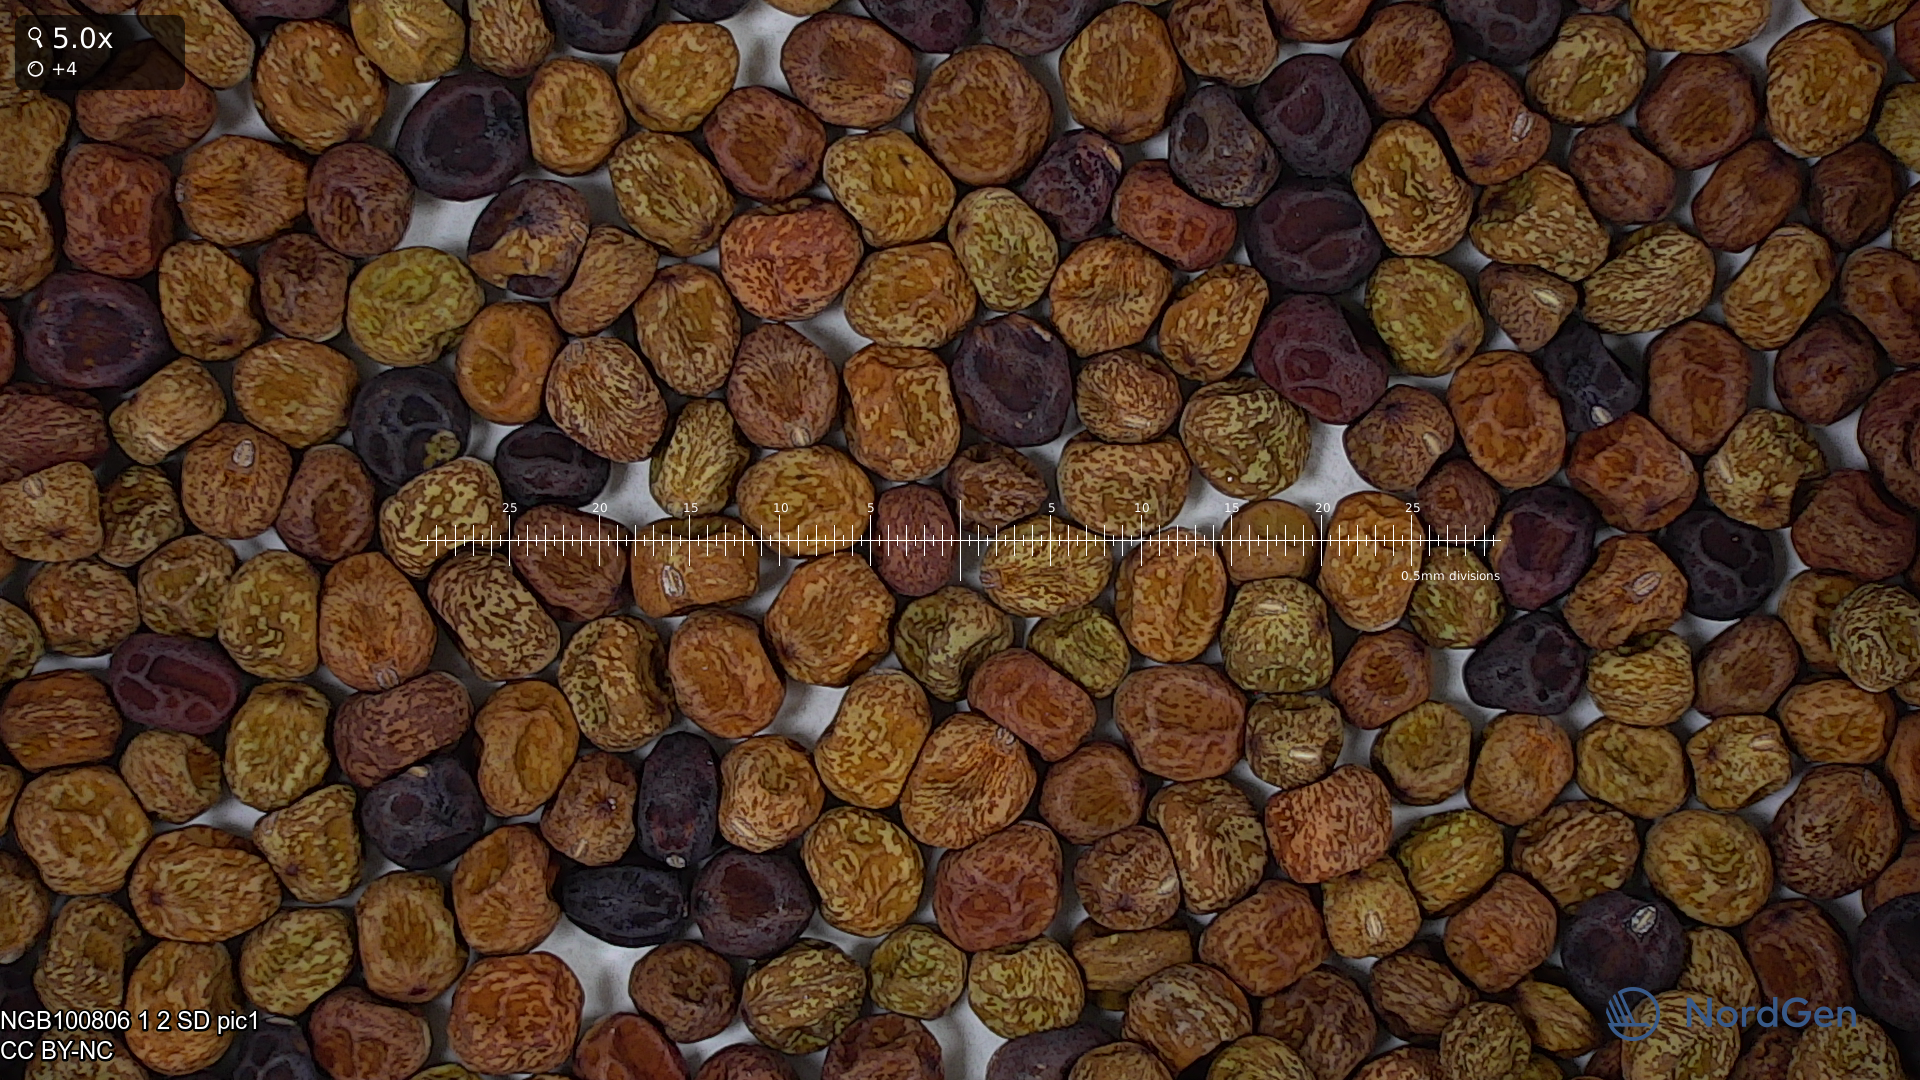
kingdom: Plantae
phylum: Tracheophyta
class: Magnoliopsida
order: Fabales
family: Fabaceae
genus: Lathyrus
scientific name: Lathyrus oleraceus
